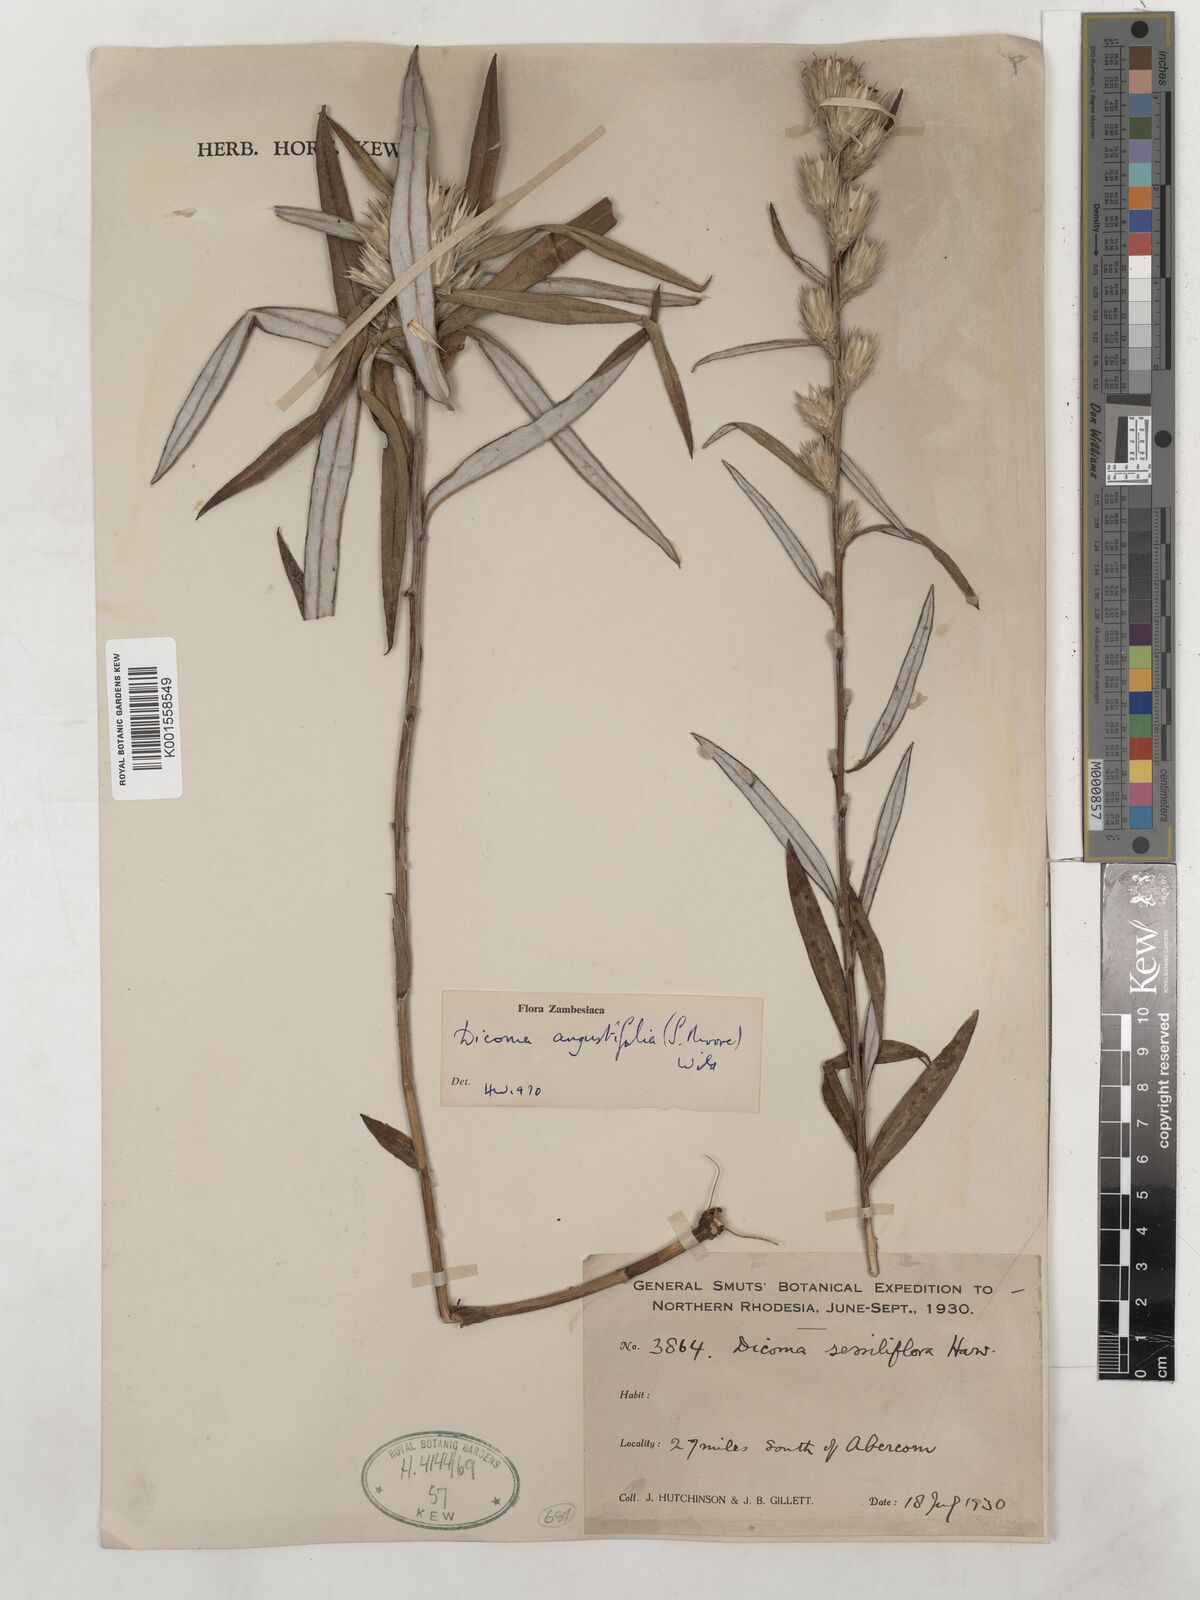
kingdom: Plantae
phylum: Tracheophyta
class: Magnoliopsida
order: Asterales
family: Asteraceae
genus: Macledium
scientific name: Macledium poggei
